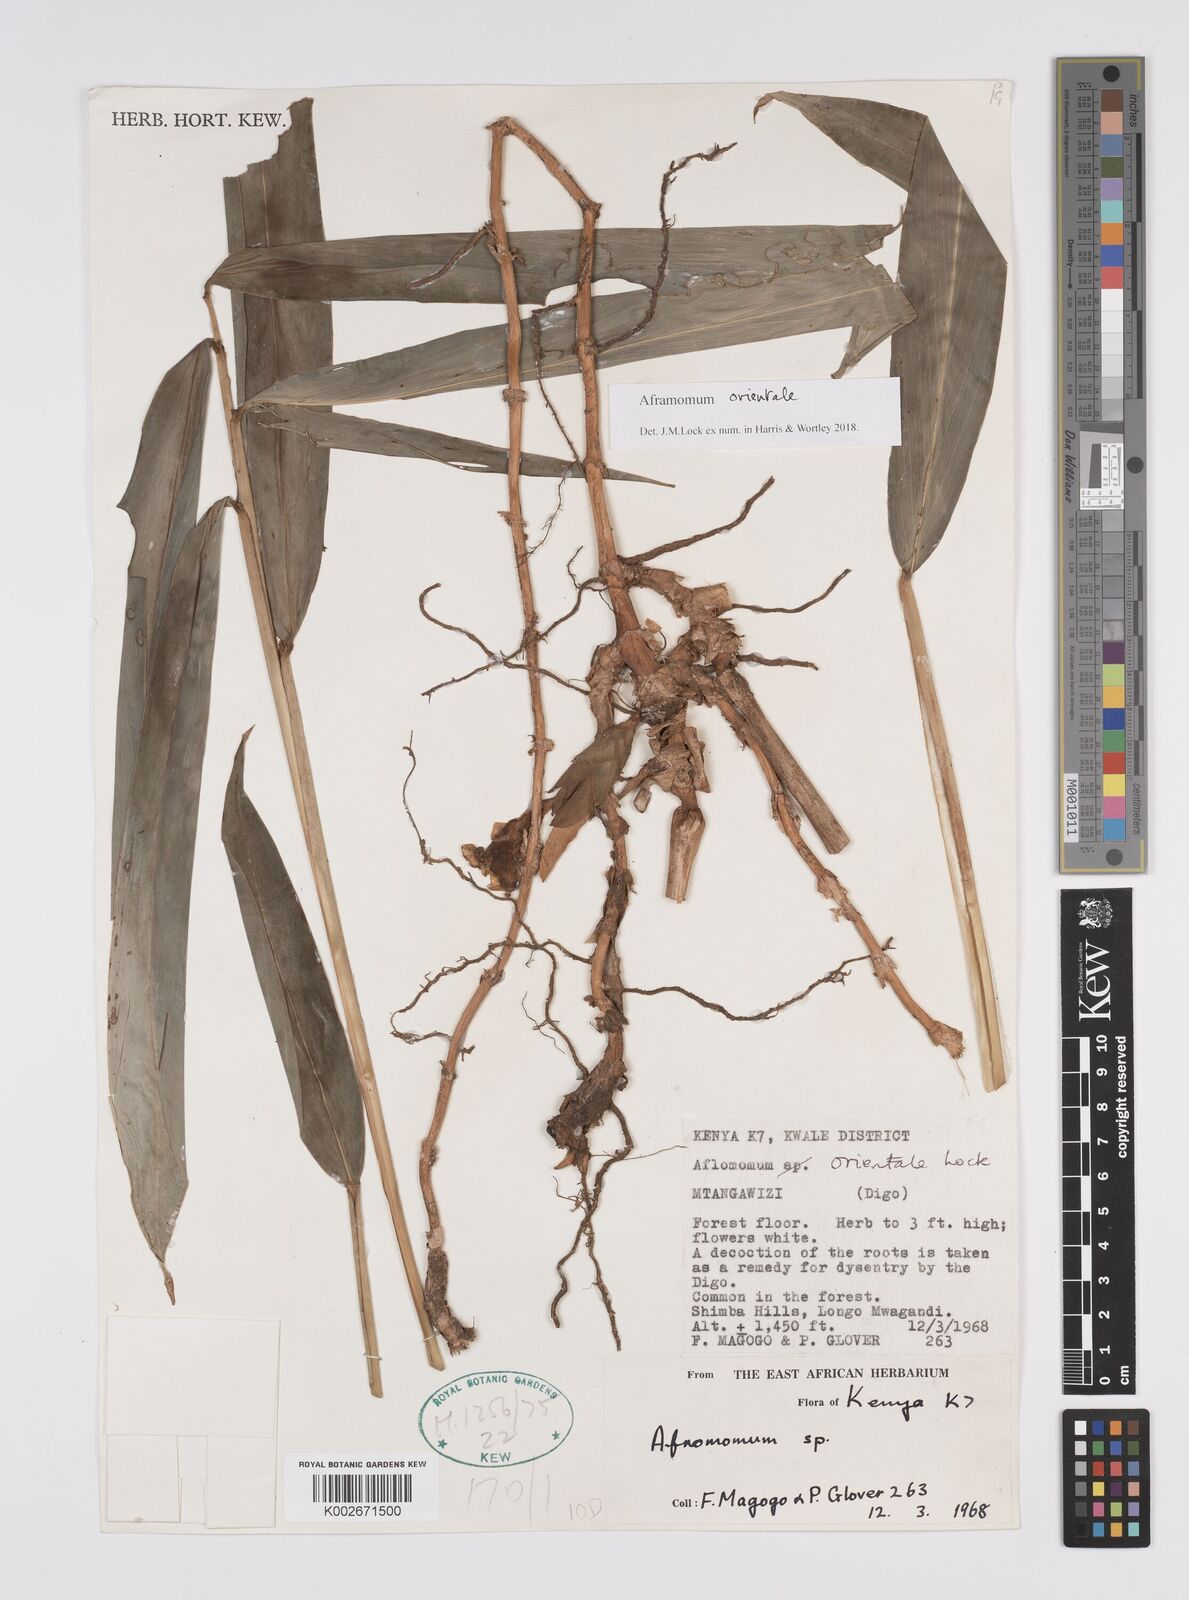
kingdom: Plantae
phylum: Tracheophyta
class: Liliopsida
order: Zingiberales
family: Zingiberaceae
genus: Aframomum
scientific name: Aframomum orientale
